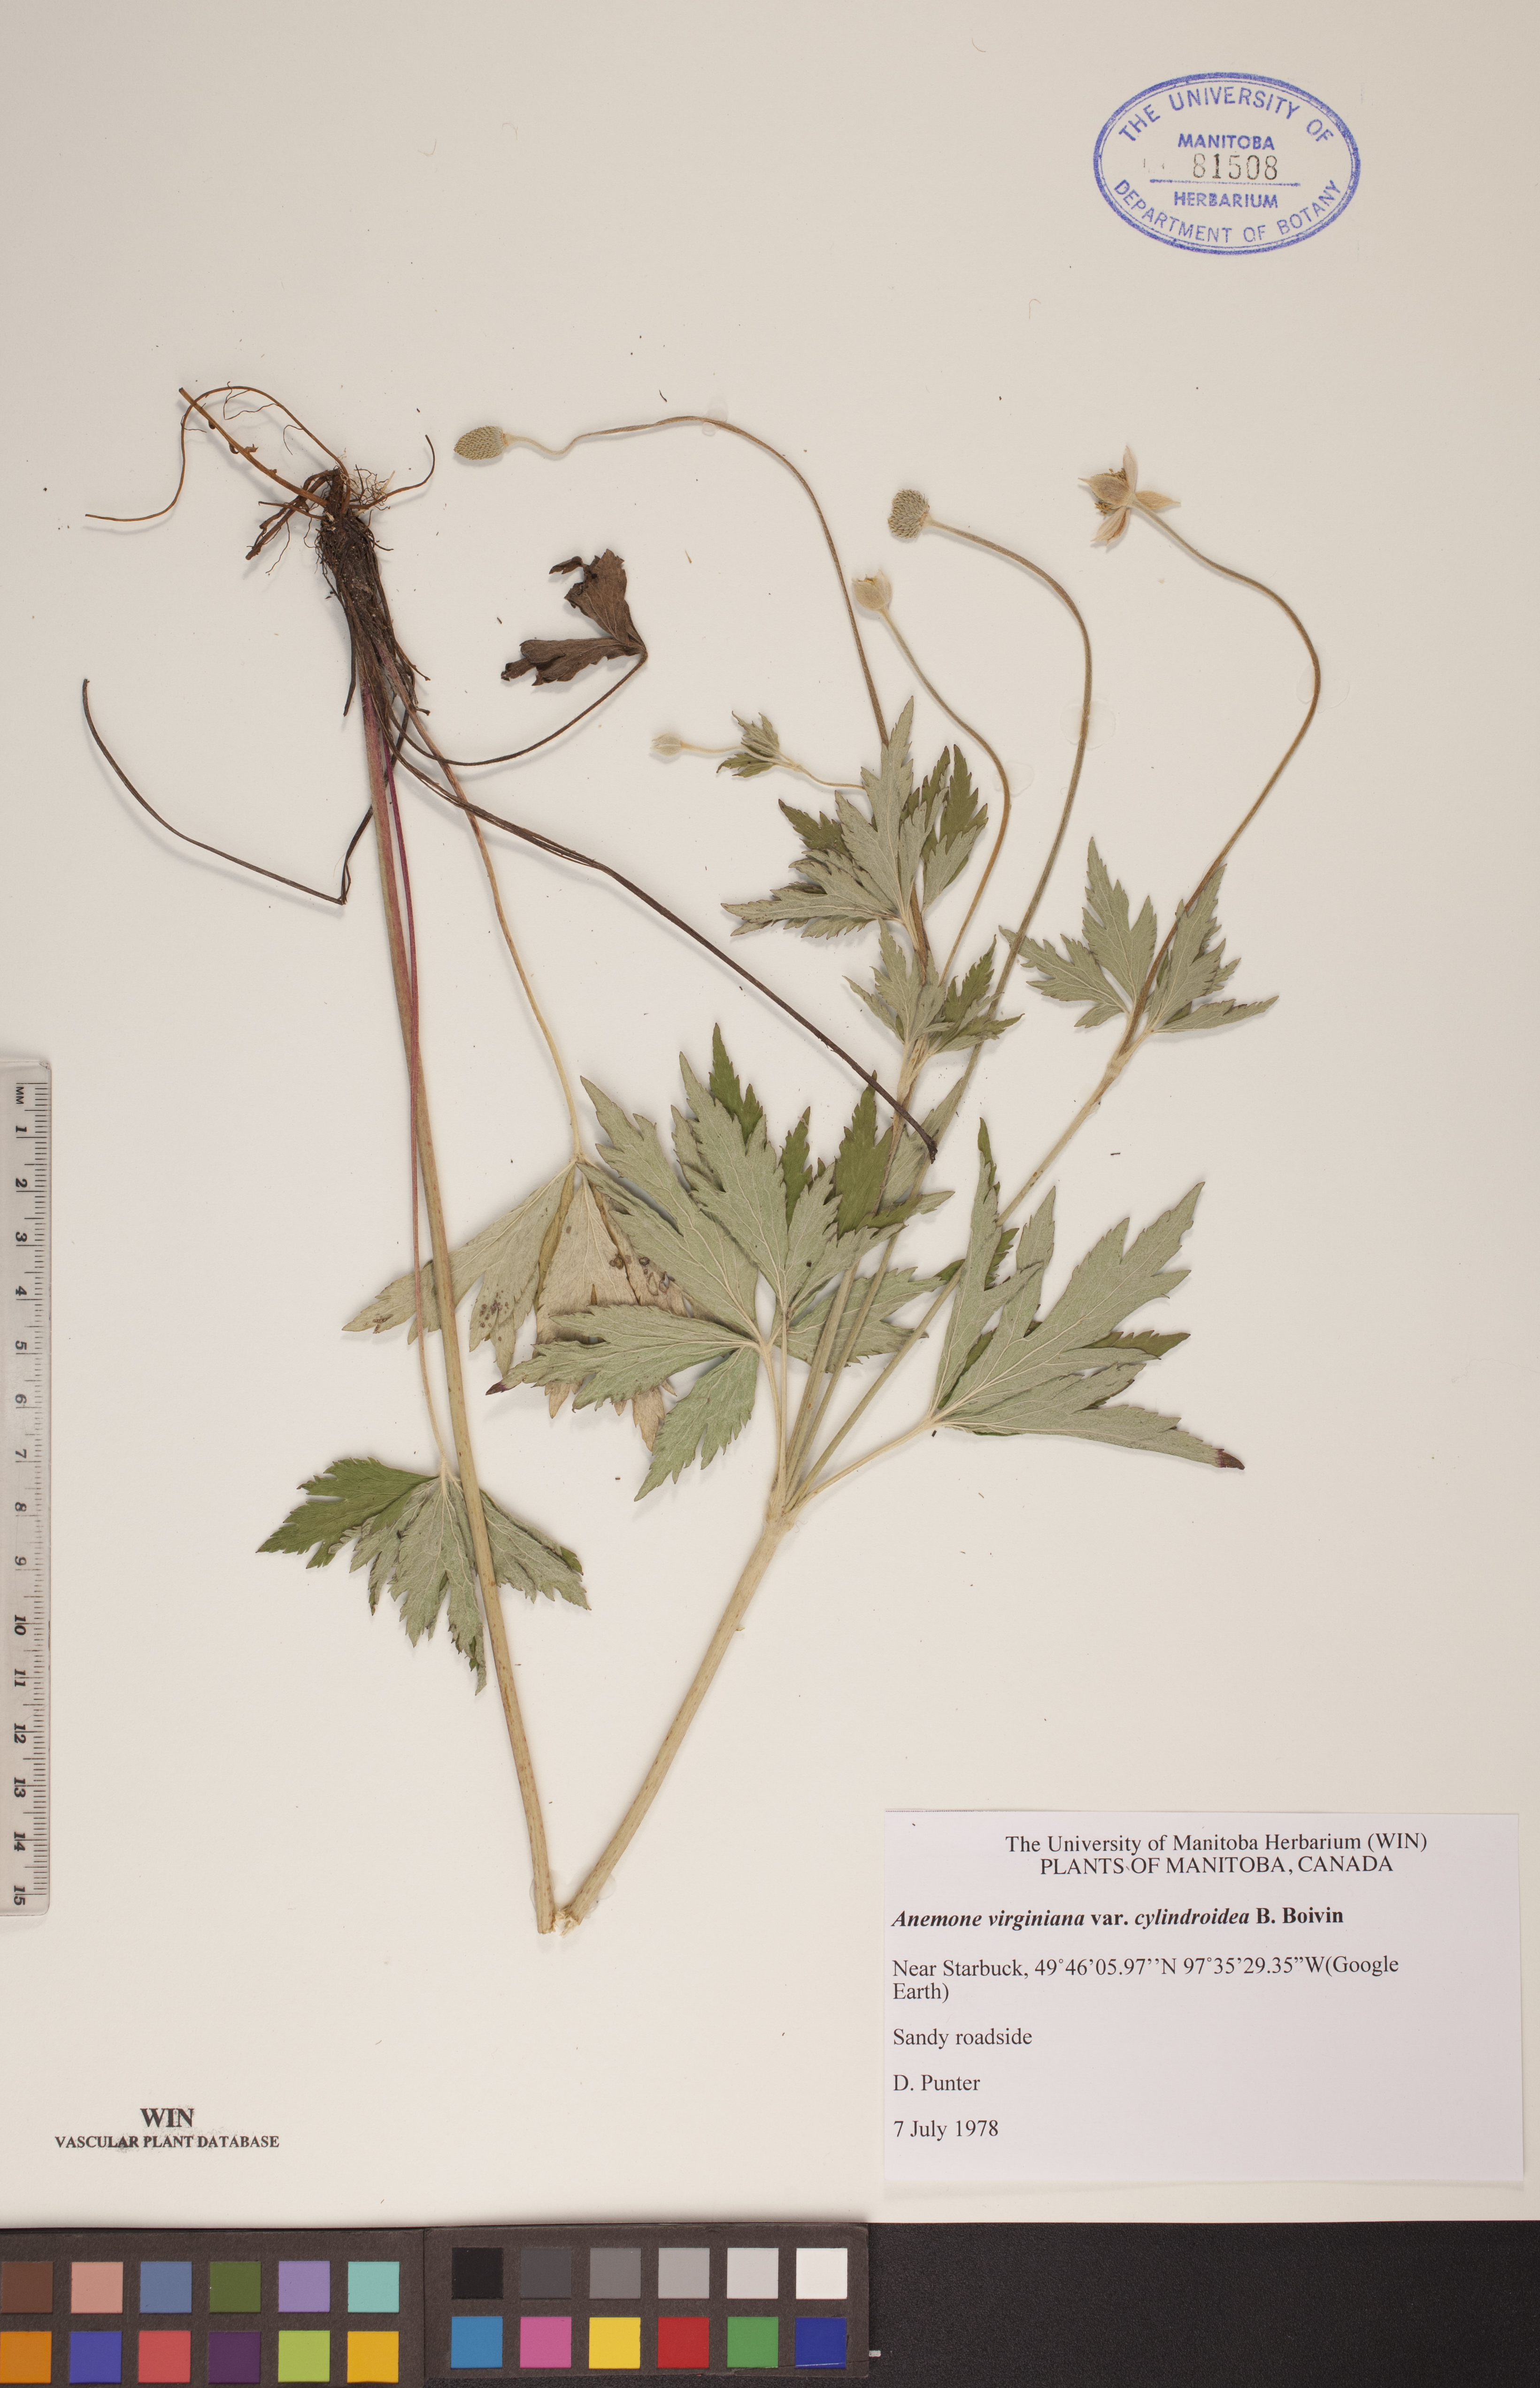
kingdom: Plantae
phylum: Tracheophyta
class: Magnoliopsida
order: Ranunculales
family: Ranunculaceae
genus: Anemone
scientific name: Anemone virginiana
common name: Tall anemone
